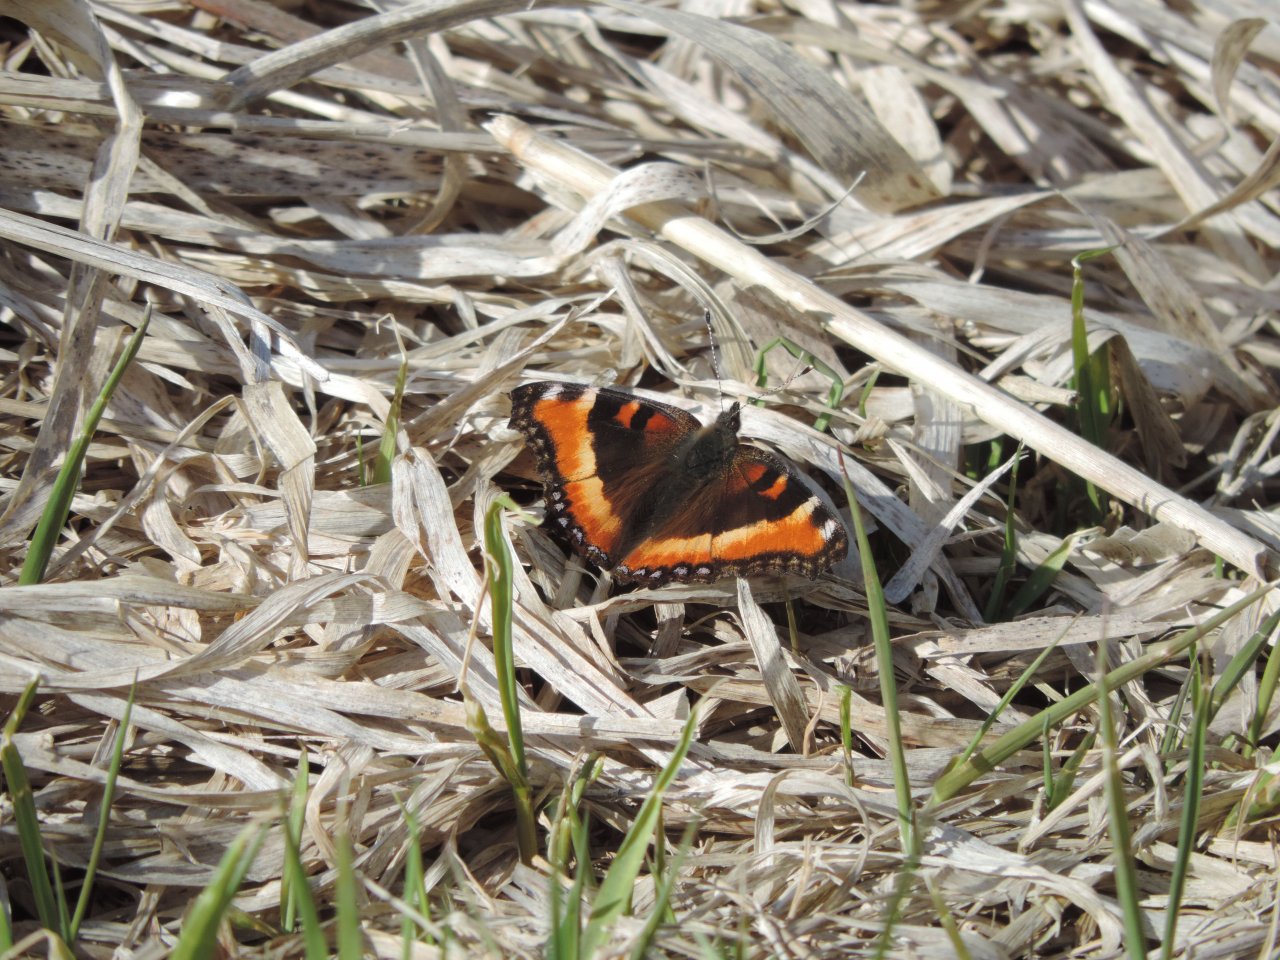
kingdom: Animalia
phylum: Arthropoda
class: Insecta
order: Lepidoptera
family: Nymphalidae
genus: Aglais
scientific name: Aglais milberti
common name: Milbert's Tortoiseshell
